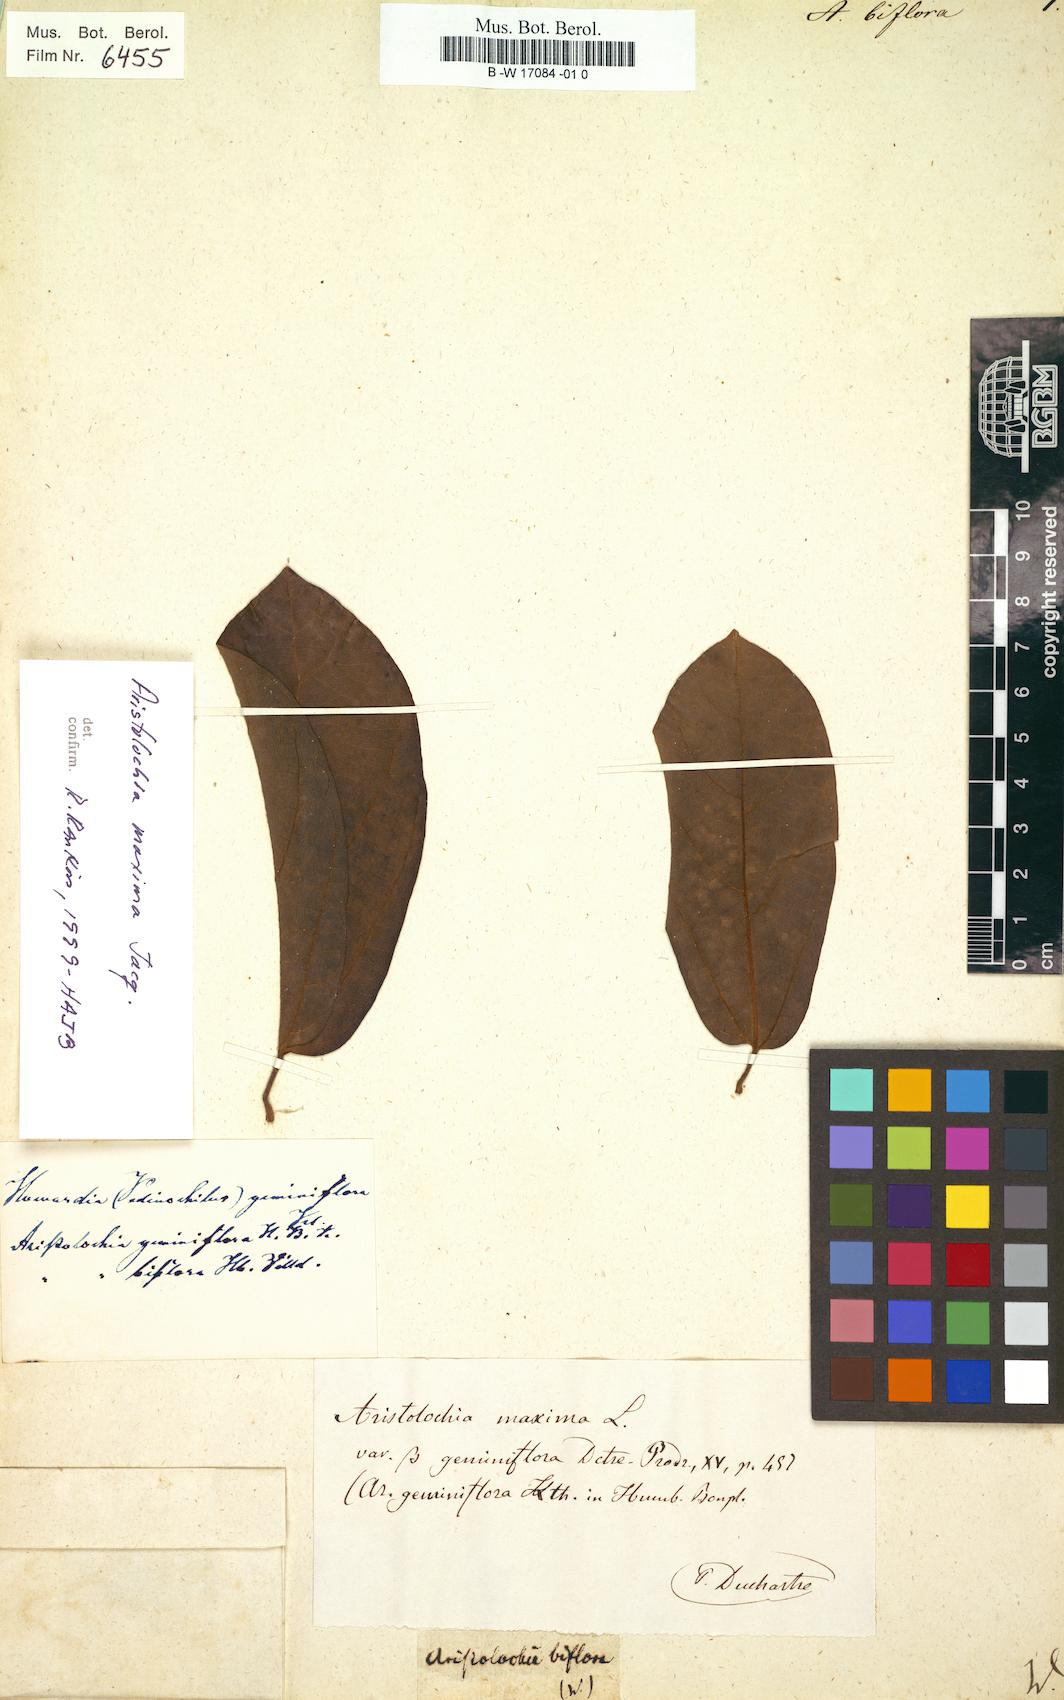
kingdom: Plantae
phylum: Tracheophyta
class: Magnoliopsida
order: Piperales
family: Aristolochiaceae
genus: Aristolochia
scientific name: Aristolochia maxima
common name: Florida dutchman's pipe
